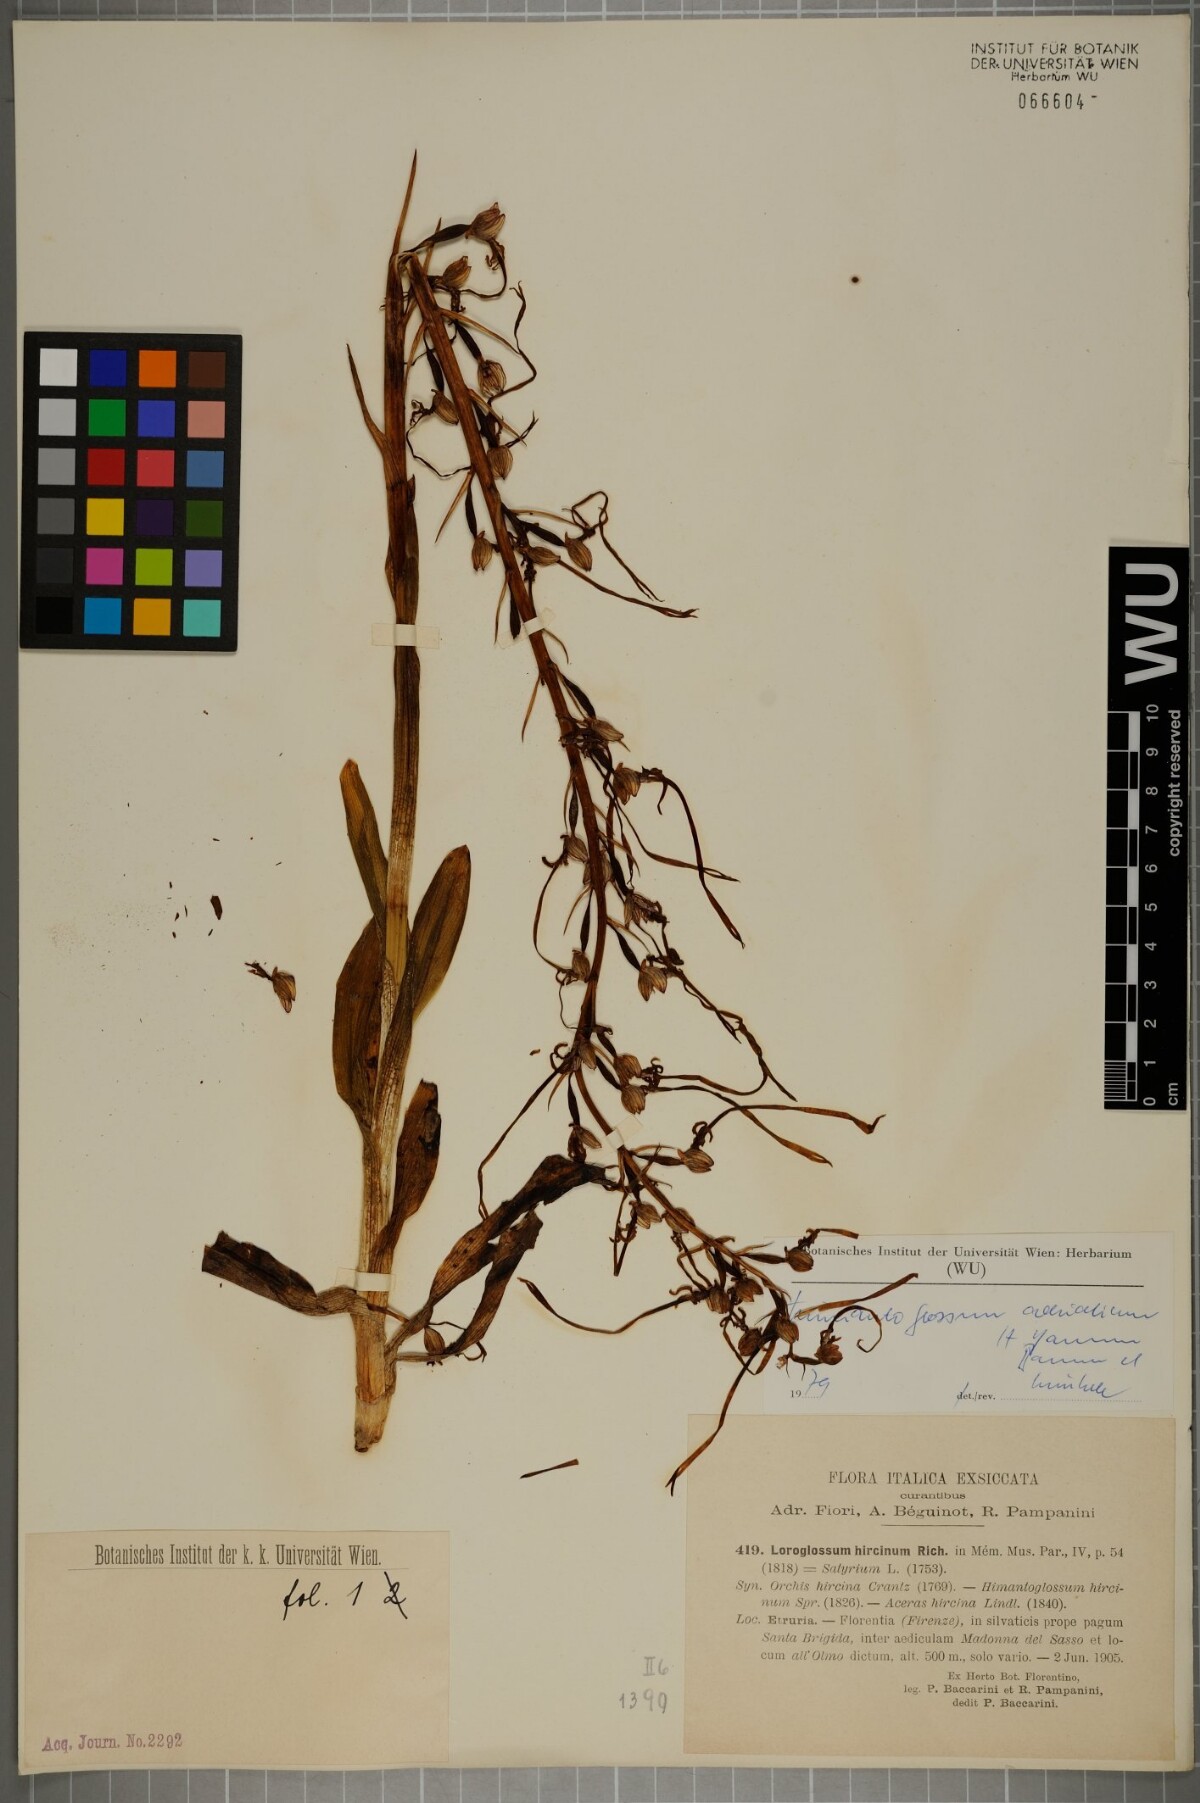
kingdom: Plantae
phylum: Tracheophyta
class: Liliopsida
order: Asparagales
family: Orchidaceae
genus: Himantoglossum
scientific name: Himantoglossum adriaticum
